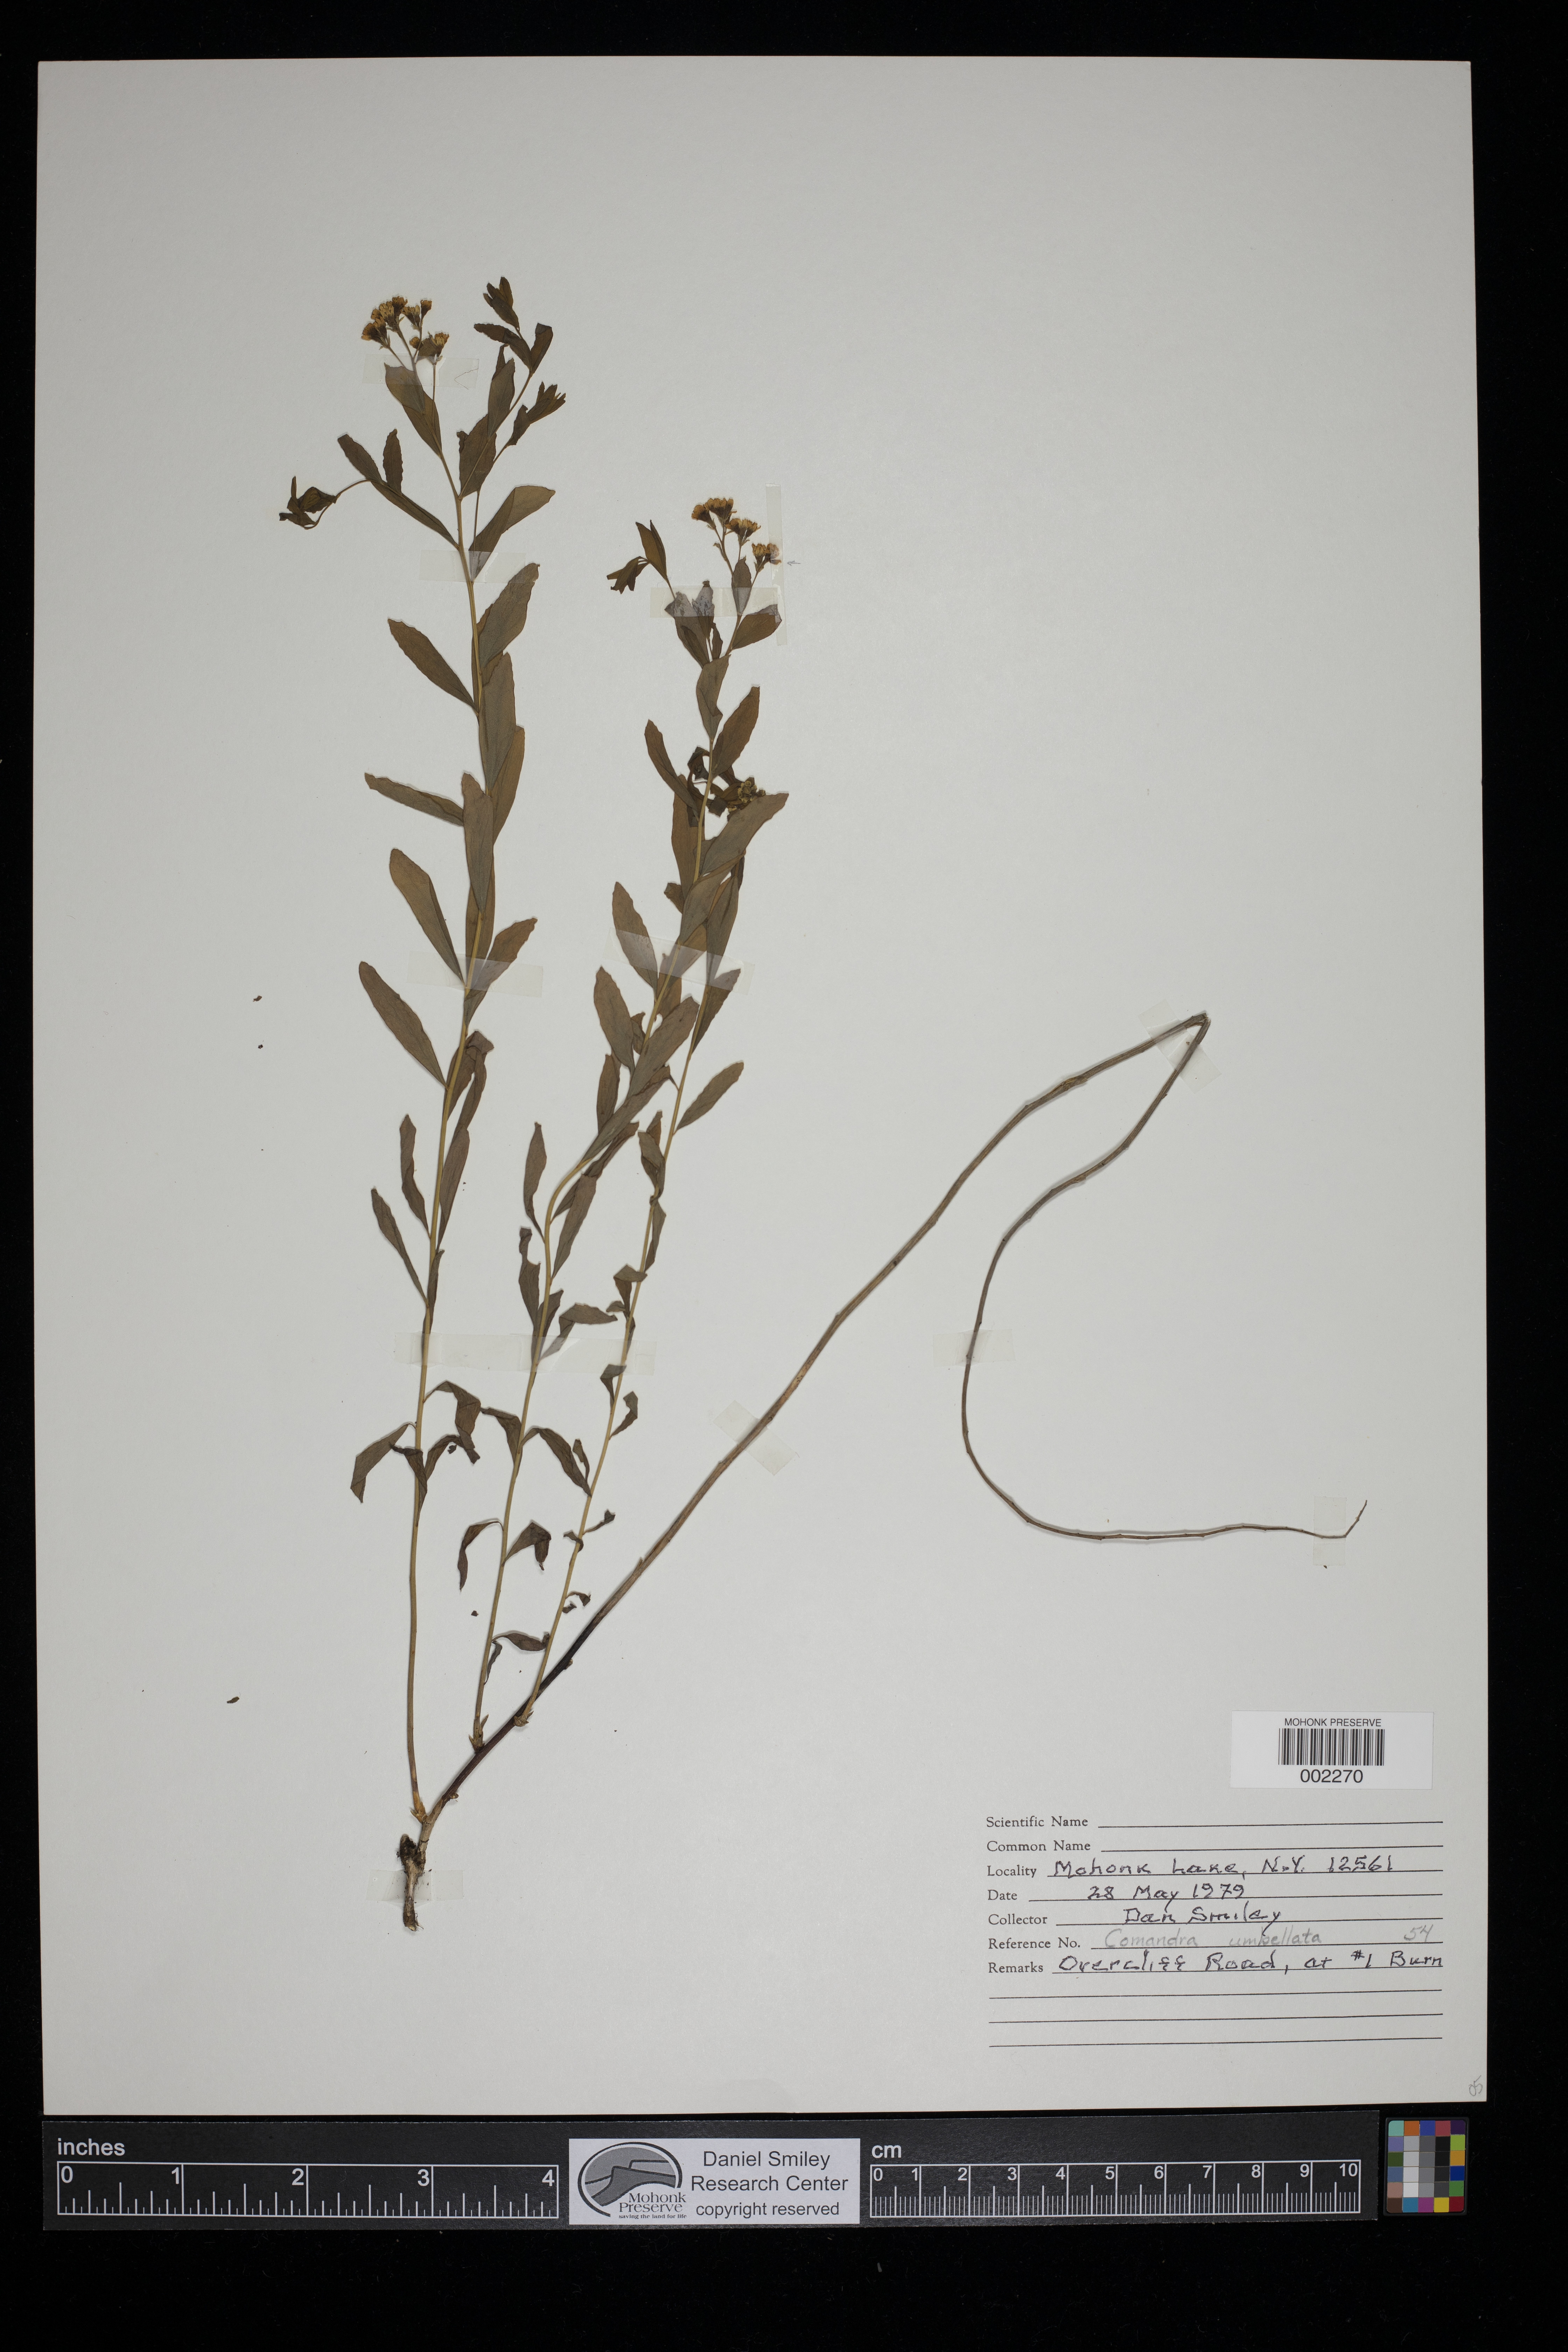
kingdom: Plantae
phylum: Tracheophyta
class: Magnoliopsida
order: Santalales
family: Comandraceae
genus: Comandra
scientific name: Comandra umbellata
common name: Bastard toadflax
